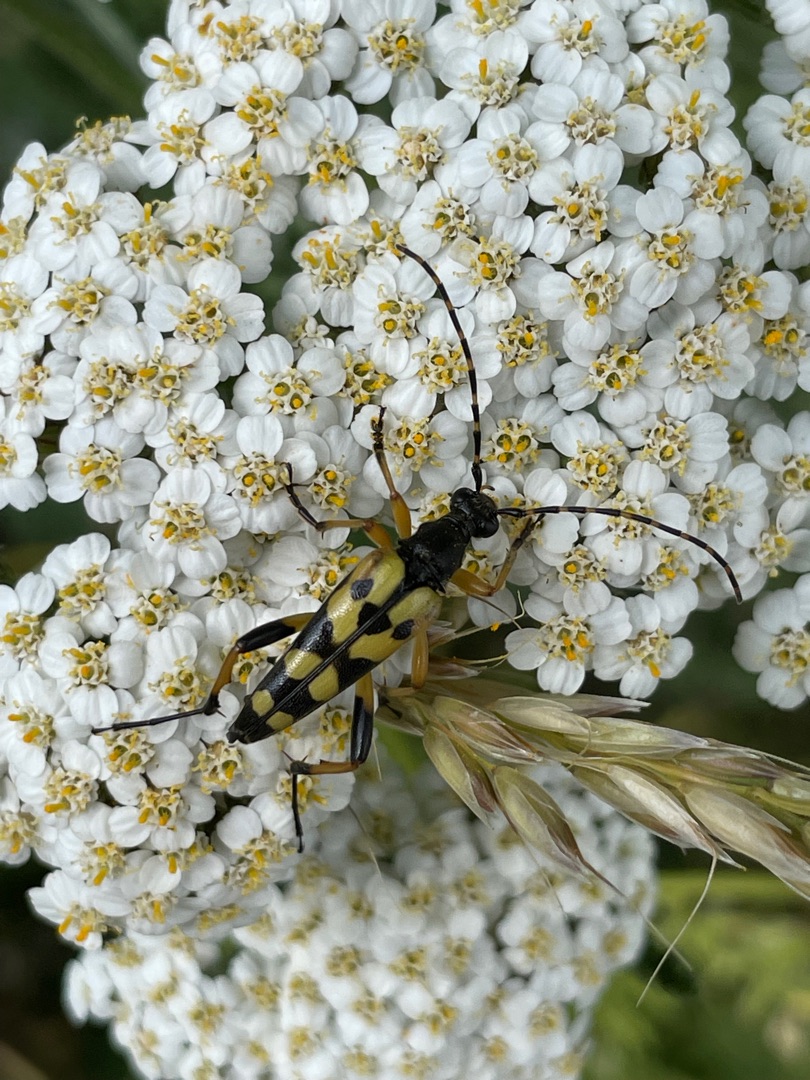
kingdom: Animalia
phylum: Arthropoda
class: Insecta
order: Coleoptera
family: Cerambycidae
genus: Rutpela
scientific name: Rutpela maculata
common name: Sydlig blomsterbuk
